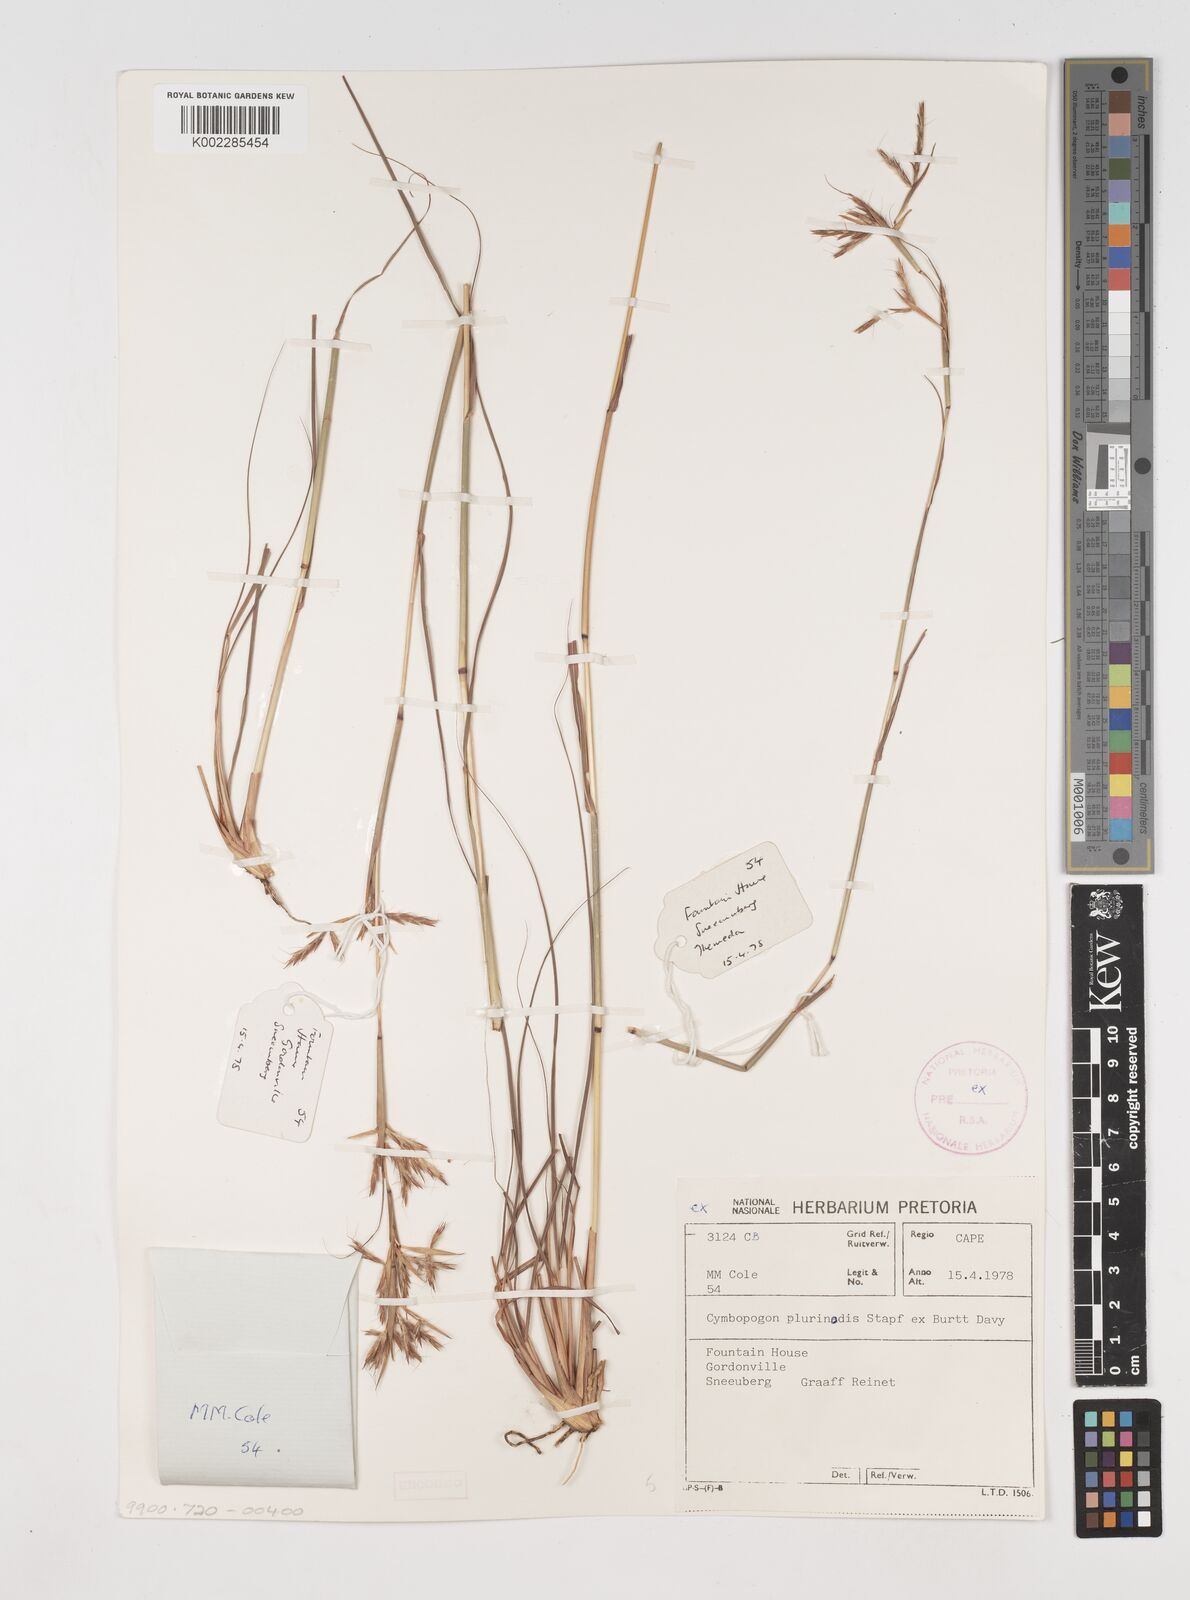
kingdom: Plantae
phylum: Tracheophyta
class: Liliopsida
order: Poales
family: Poaceae
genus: Cymbopogon
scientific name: Cymbopogon pospischilii
